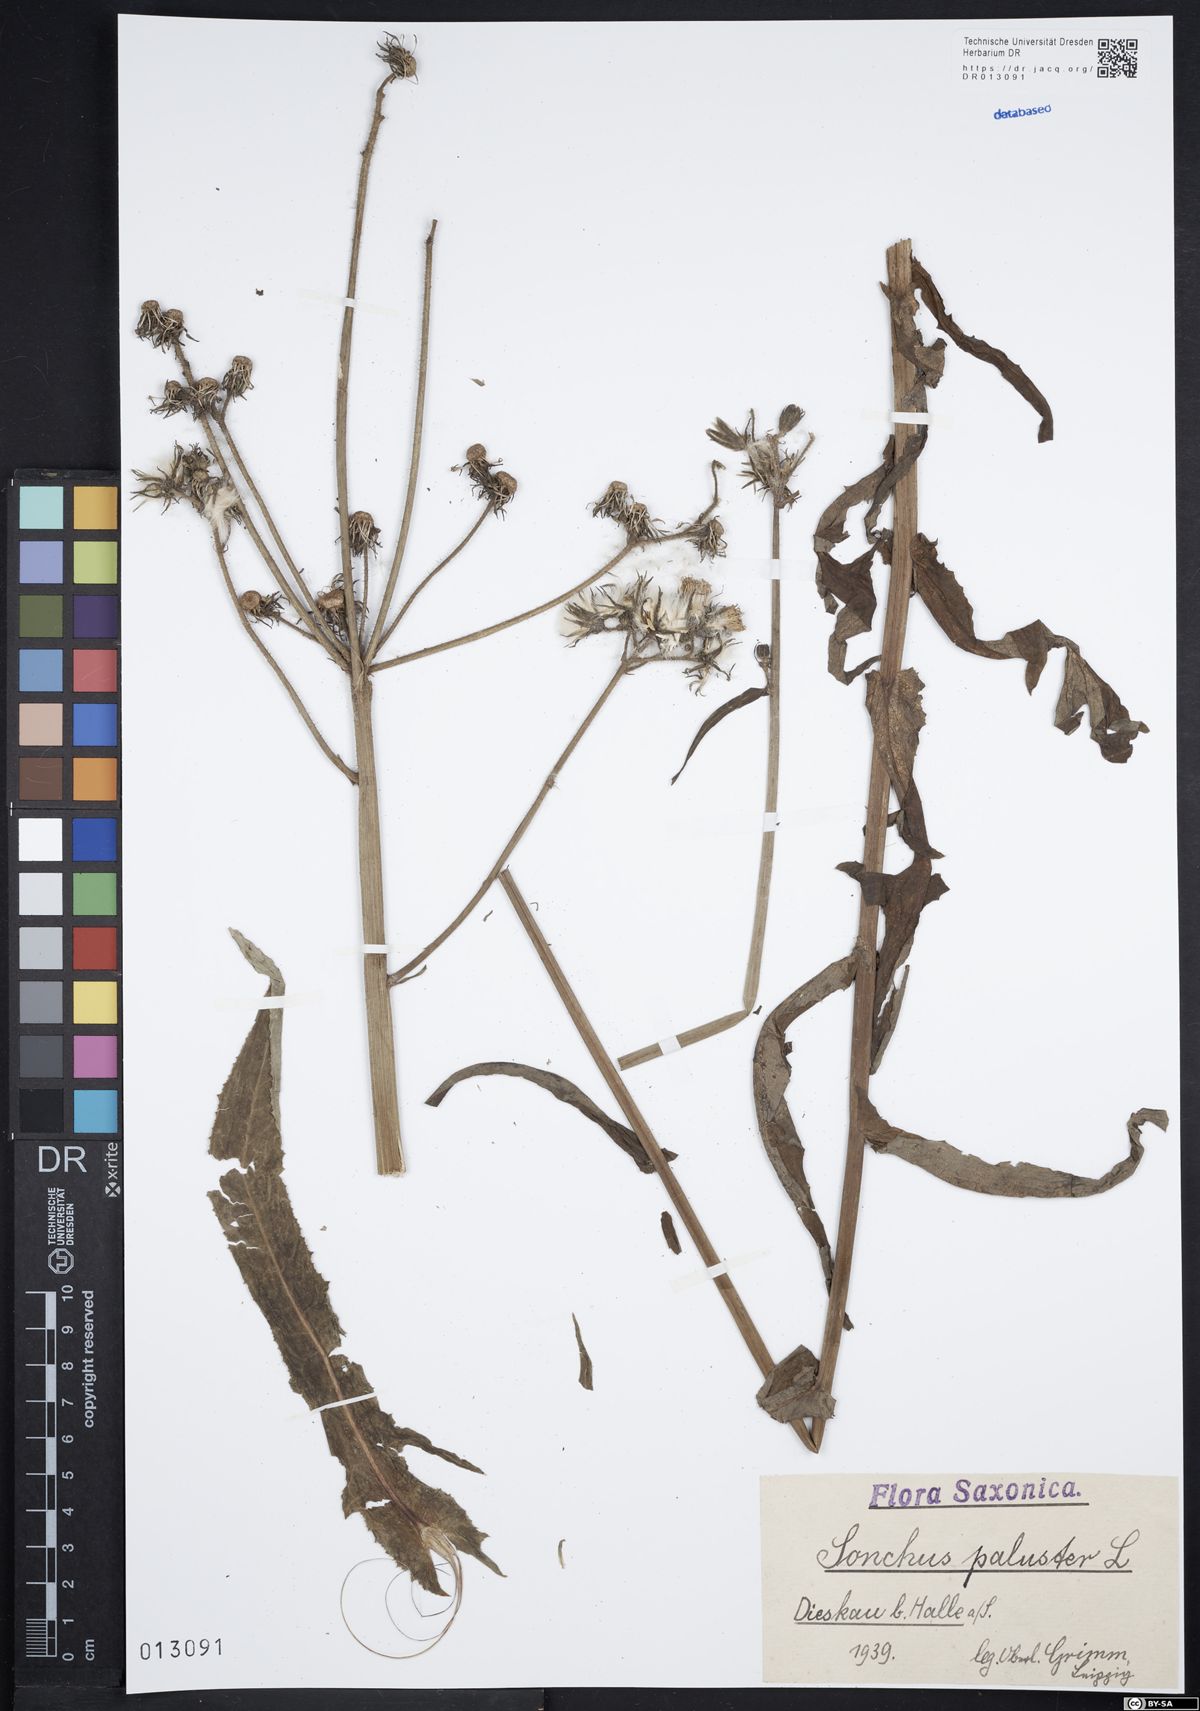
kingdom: Plantae
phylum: Tracheophyta
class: Magnoliopsida
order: Asterales
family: Asteraceae
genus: Sonchus
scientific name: Sonchus palustris
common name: Marsh sow-thistle
